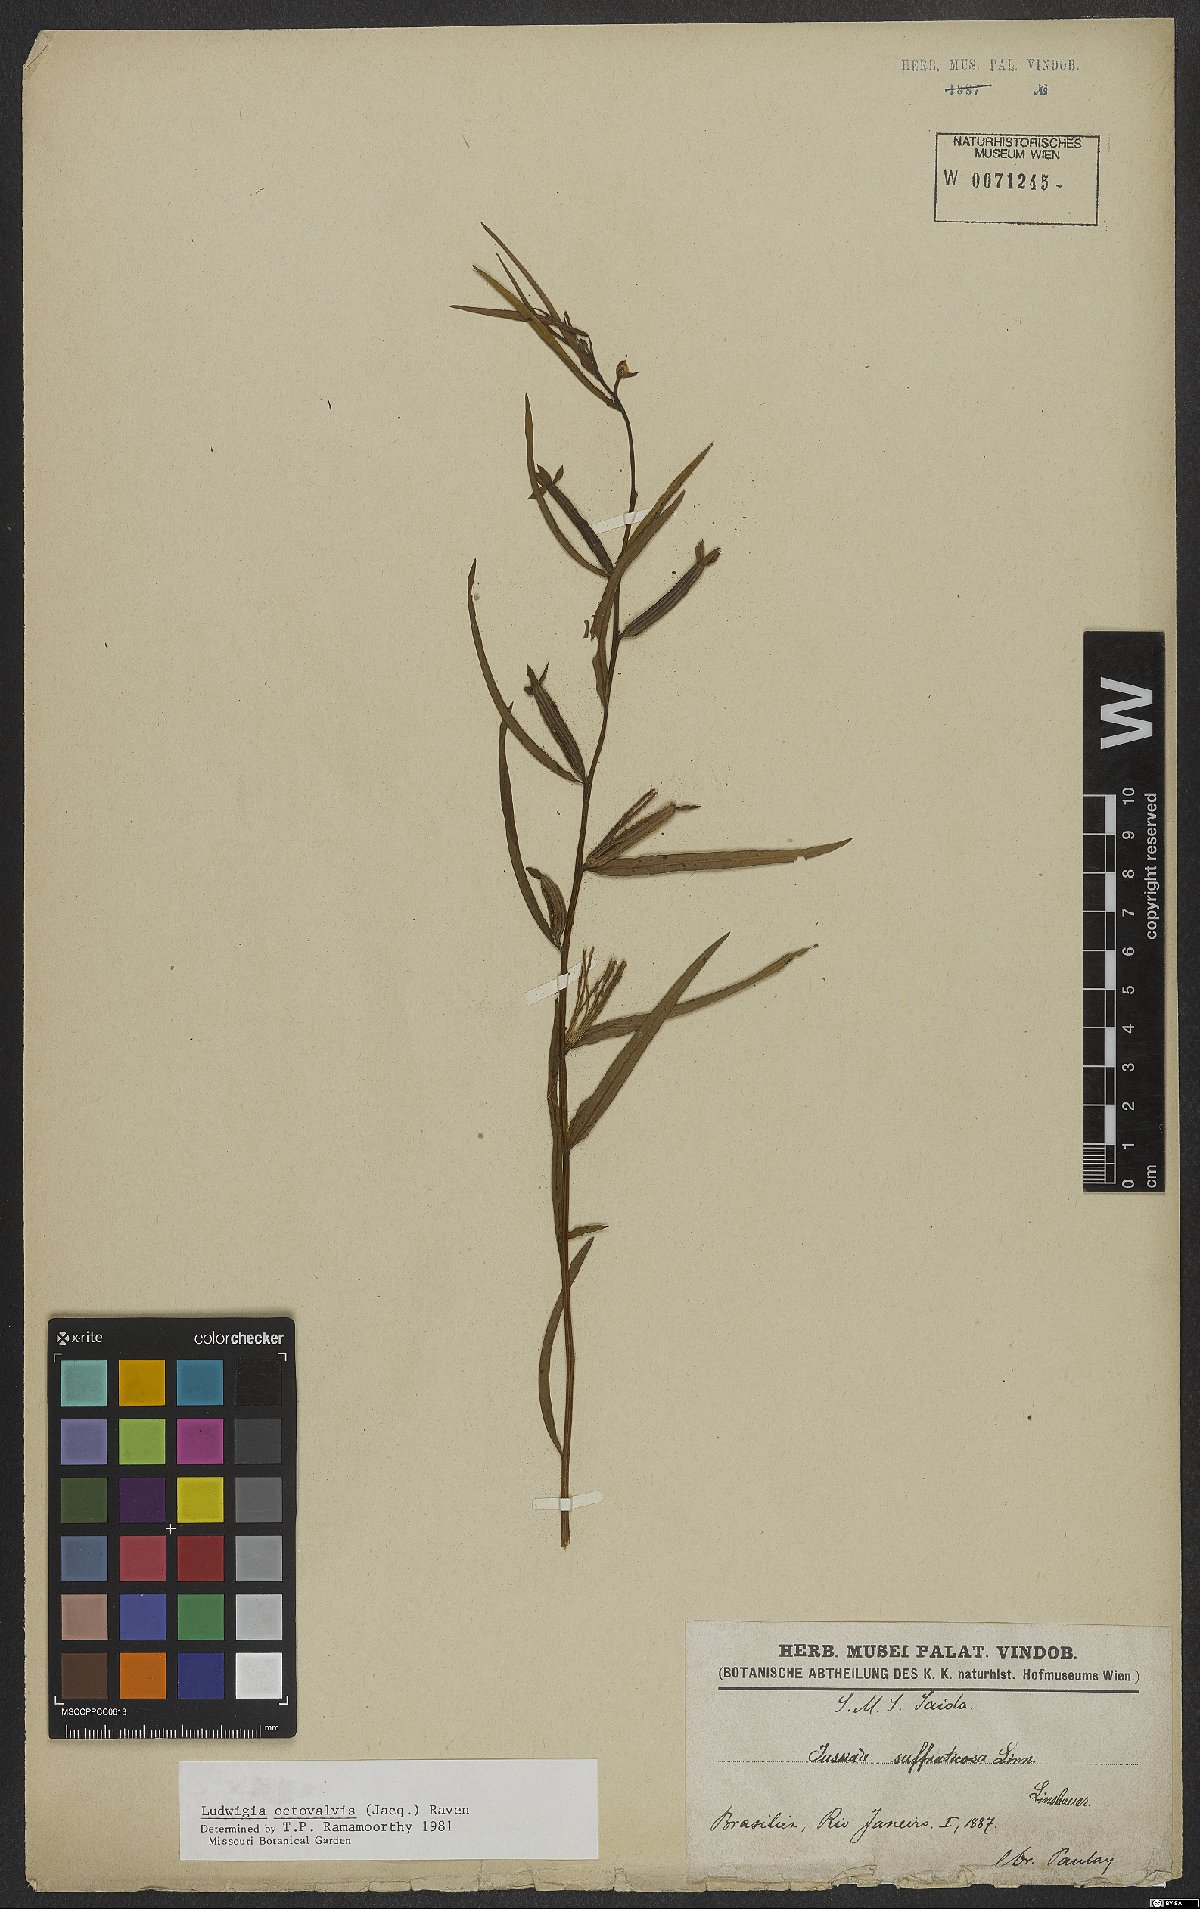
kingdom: Plantae
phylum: Tracheophyta
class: Magnoliopsida
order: Myrtales
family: Onagraceae
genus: Ludwigia
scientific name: Ludwigia octovalvis
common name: Water-primrose
